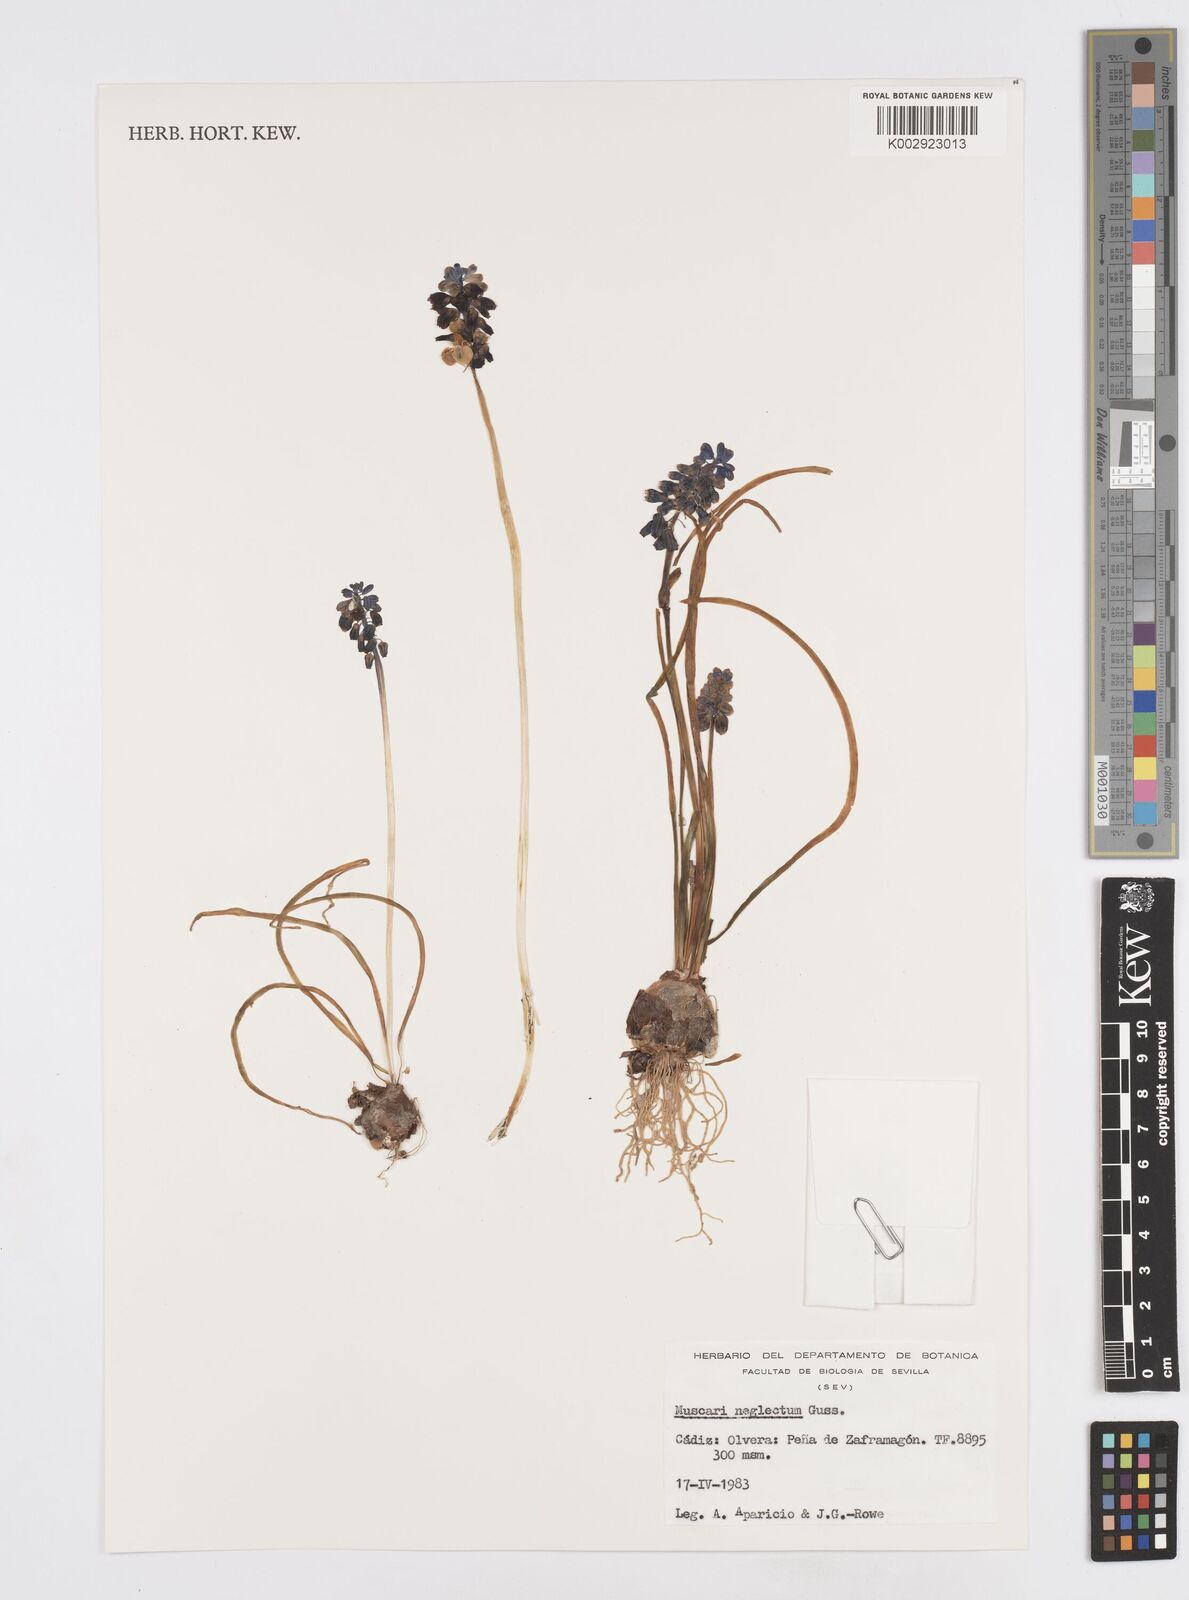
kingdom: Plantae
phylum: Tracheophyta
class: Liliopsida
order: Asparagales
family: Asparagaceae
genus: Muscari
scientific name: Muscari neglectum
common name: Grape-hyacinth
